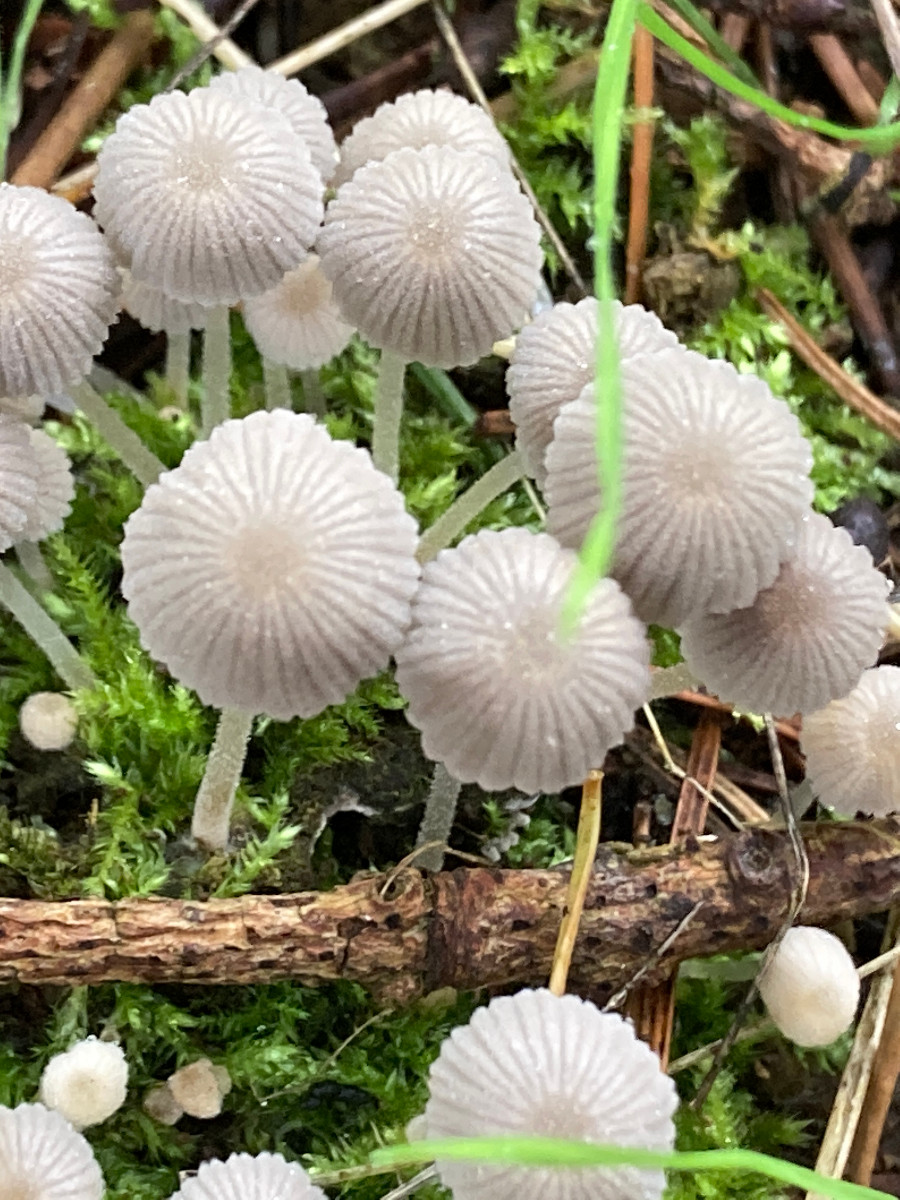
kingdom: Fungi
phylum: Basidiomycota
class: Agaricomycetes
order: Agaricales
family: Psathyrellaceae
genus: Coprinellus
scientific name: Coprinellus disseminatus
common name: bredsået blækhat
